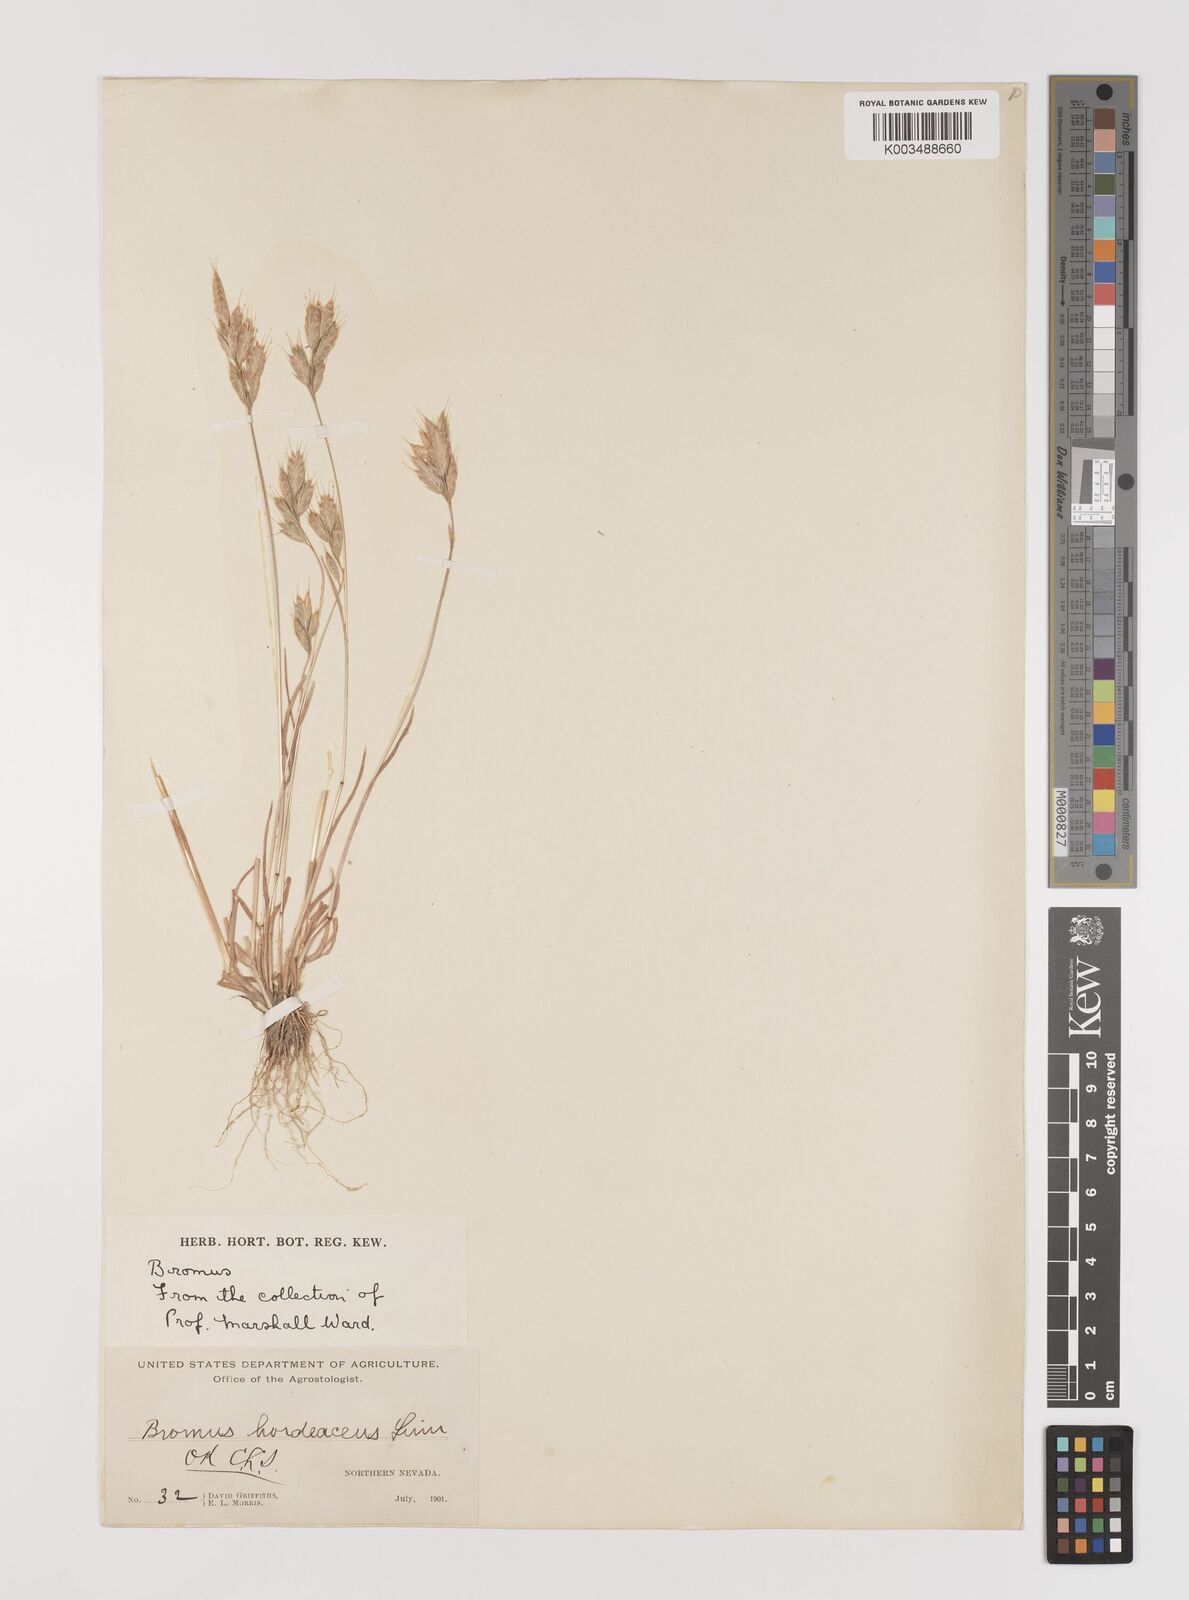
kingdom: Plantae
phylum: Tracheophyta
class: Liliopsida
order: Poales
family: Poaceae
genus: Bromus
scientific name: Bromus hordeaceus
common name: Soft brome
